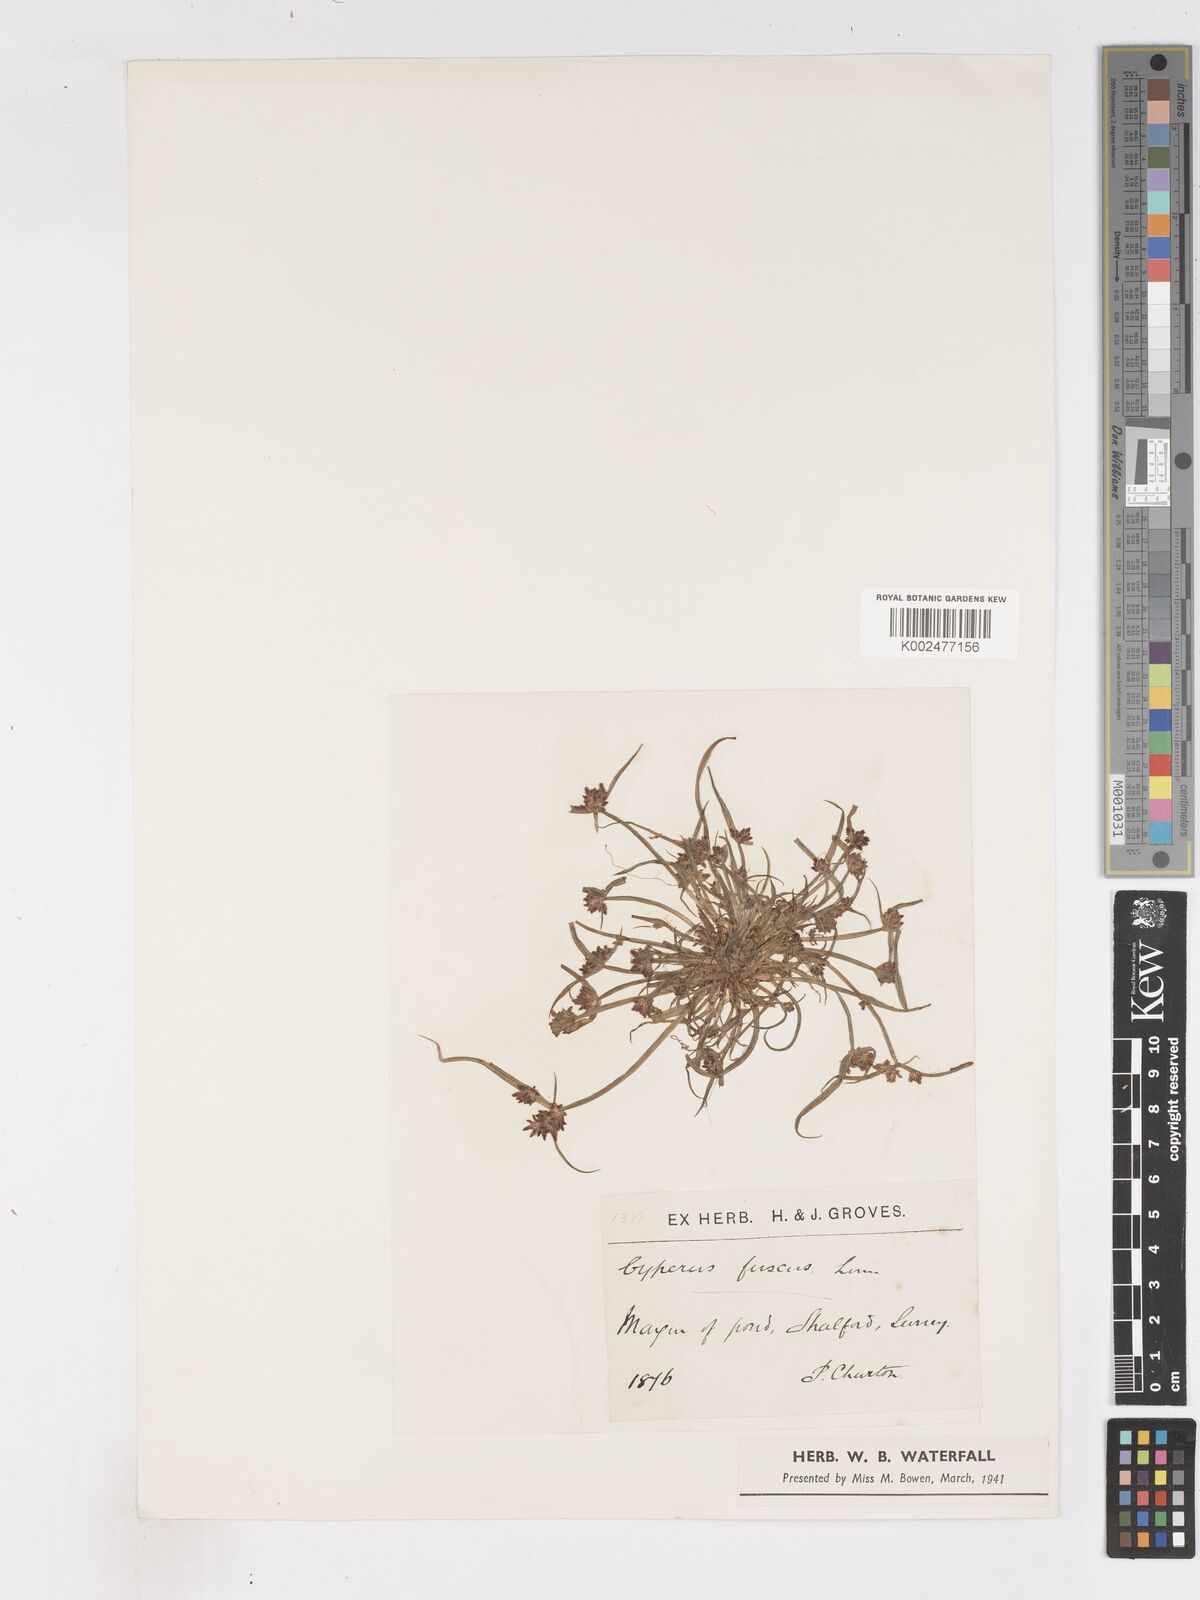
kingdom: Plantae
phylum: Tracheophyta
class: Liliopsida
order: Poales
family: Cyperaceae
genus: Cyperus
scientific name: Cyperus fuscus
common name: Brown galingale
